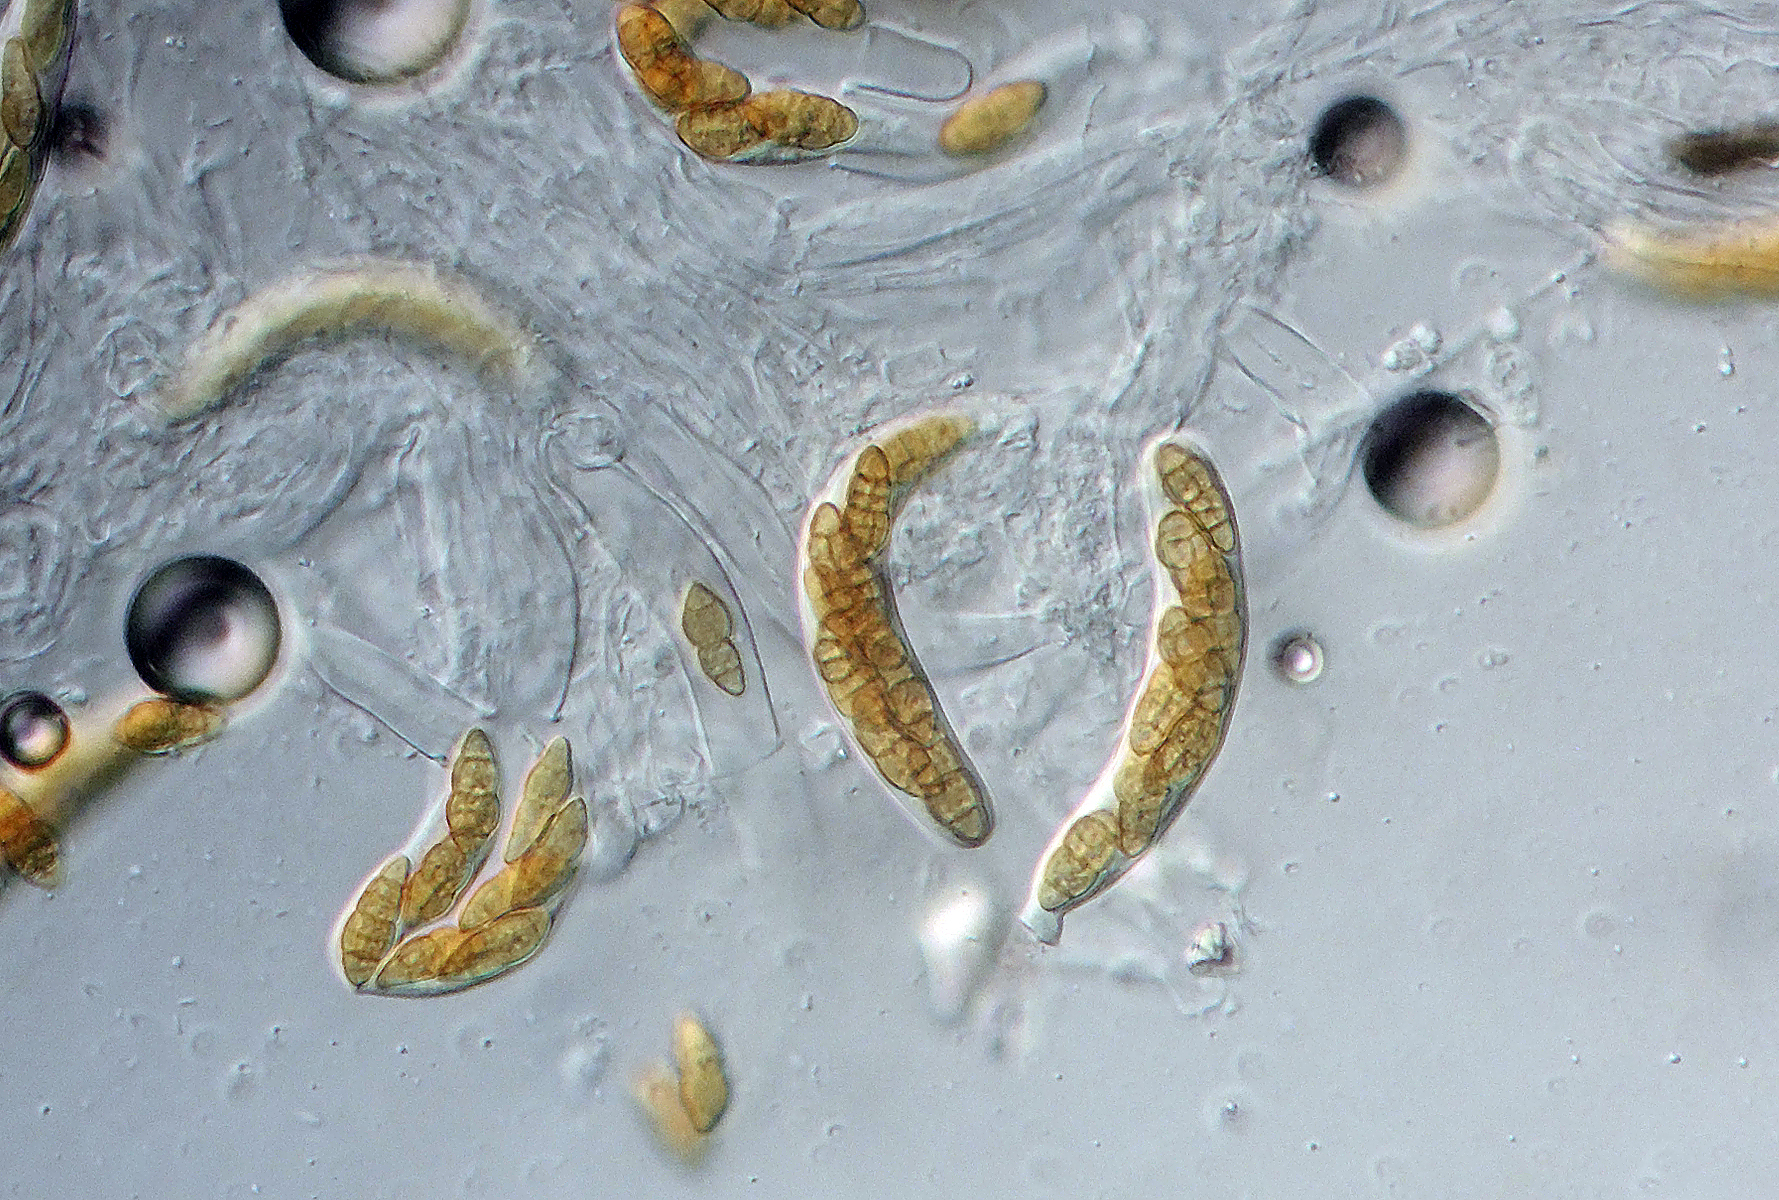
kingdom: Fungi
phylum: Ascomycota
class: Dothideomycetes
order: Pleosporales
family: Pleosporaceae
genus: Pleospora
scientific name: Pleospora phaeocomoides
